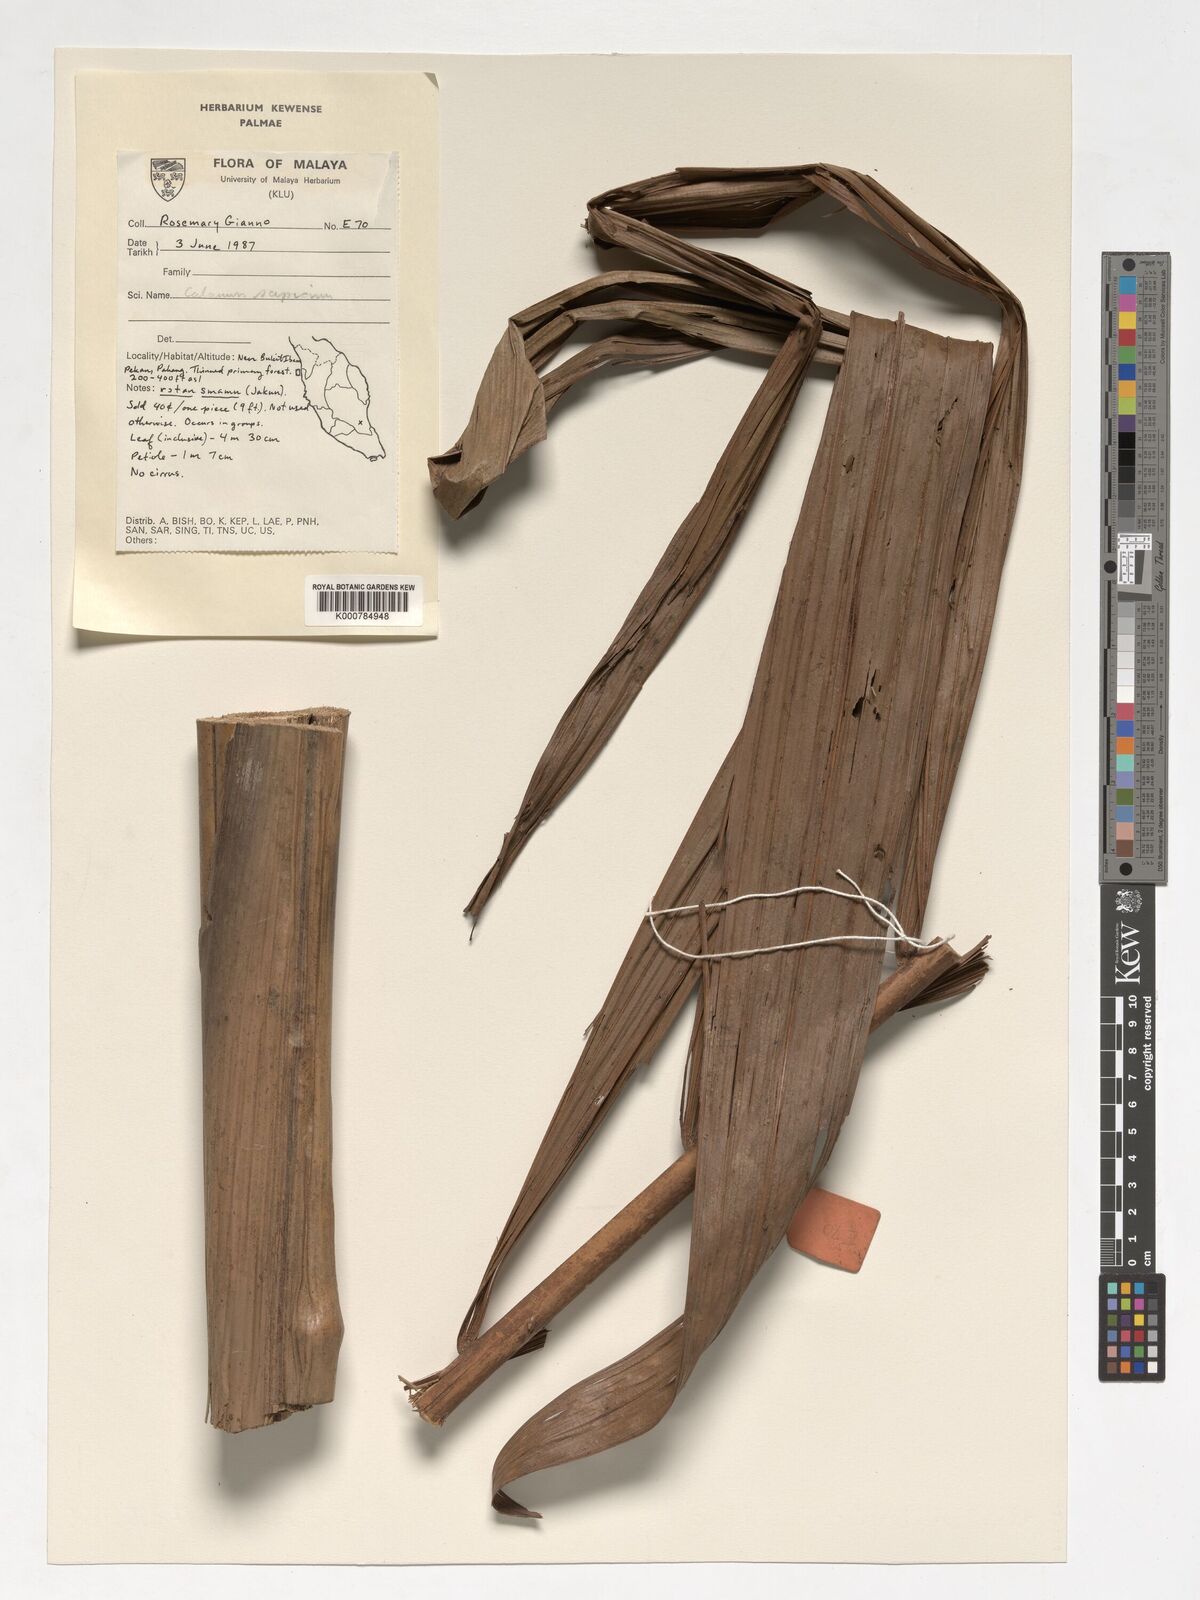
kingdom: Plantae
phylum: Tracheophyta
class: Liliopsida
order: Arecales
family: Arecaceae
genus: Calamus
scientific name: Calamus scipionum
